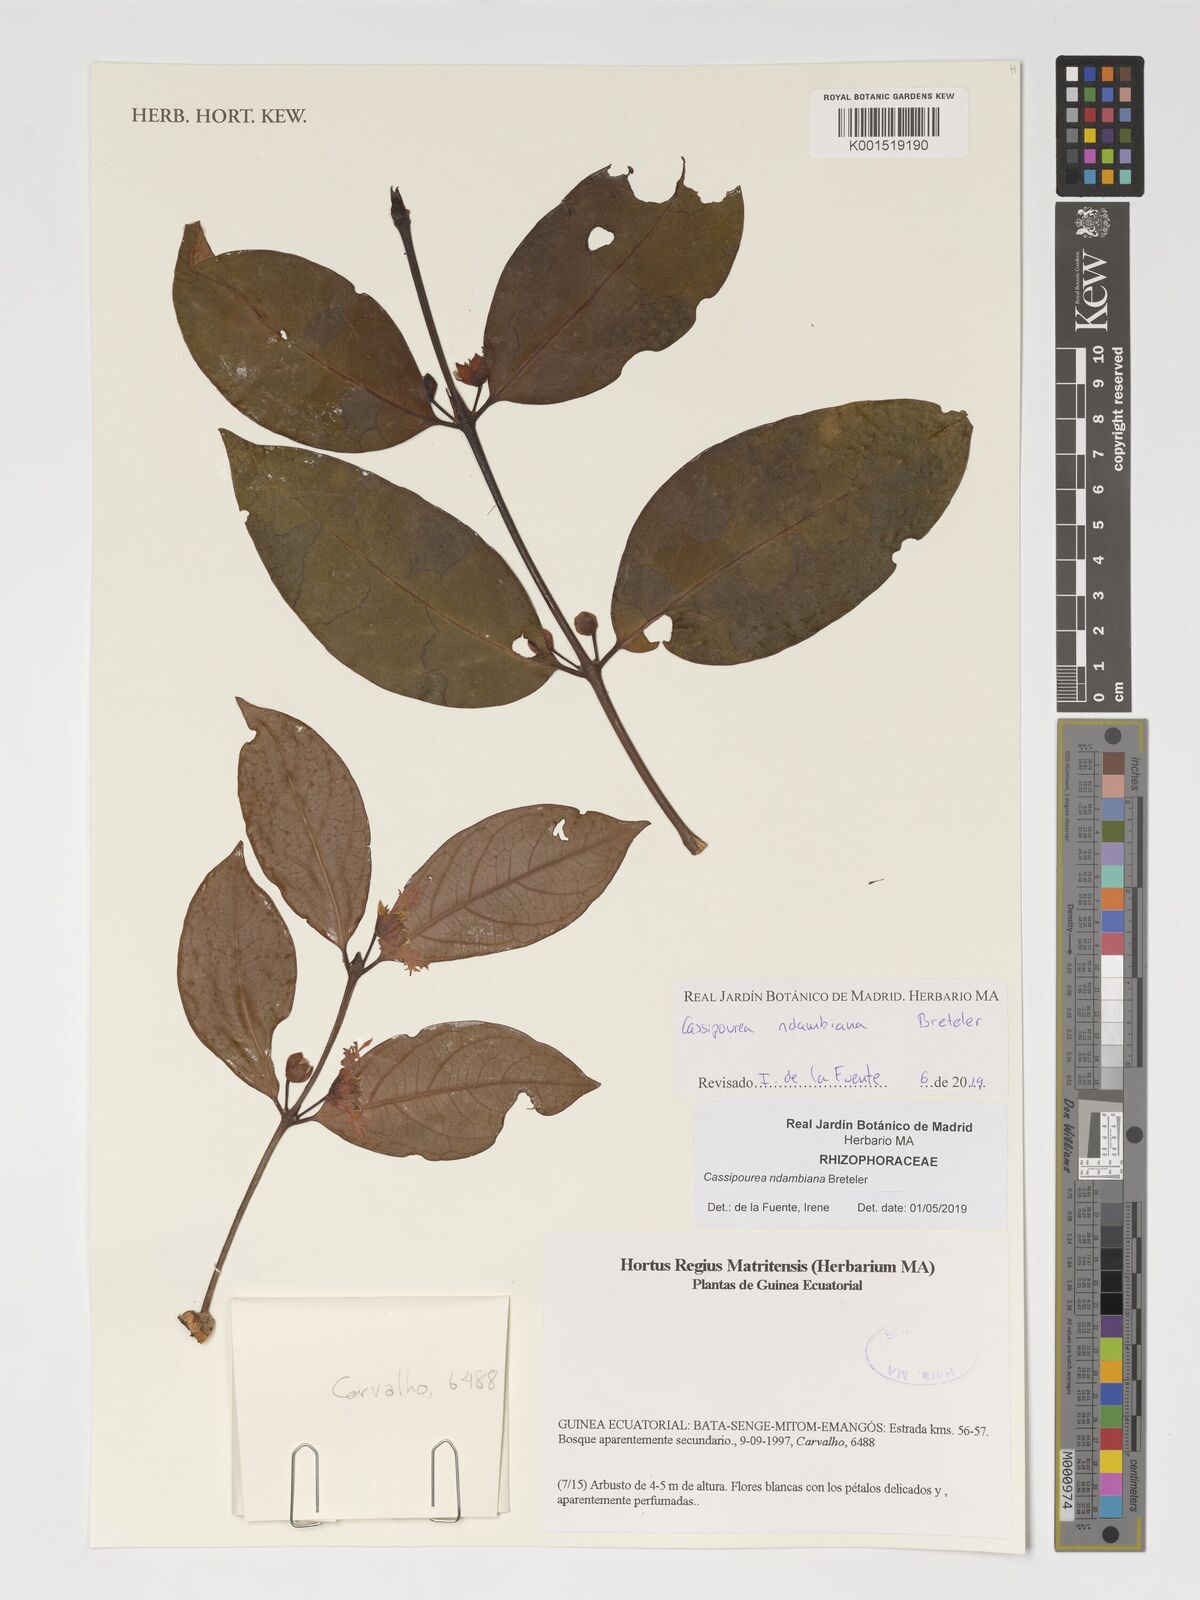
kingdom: Plantae
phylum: Tracheophyta
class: Magnoliopsida
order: Malpighiales
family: Rhizophoraceae
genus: Cassipourea
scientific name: Cassipourea ndambiana
